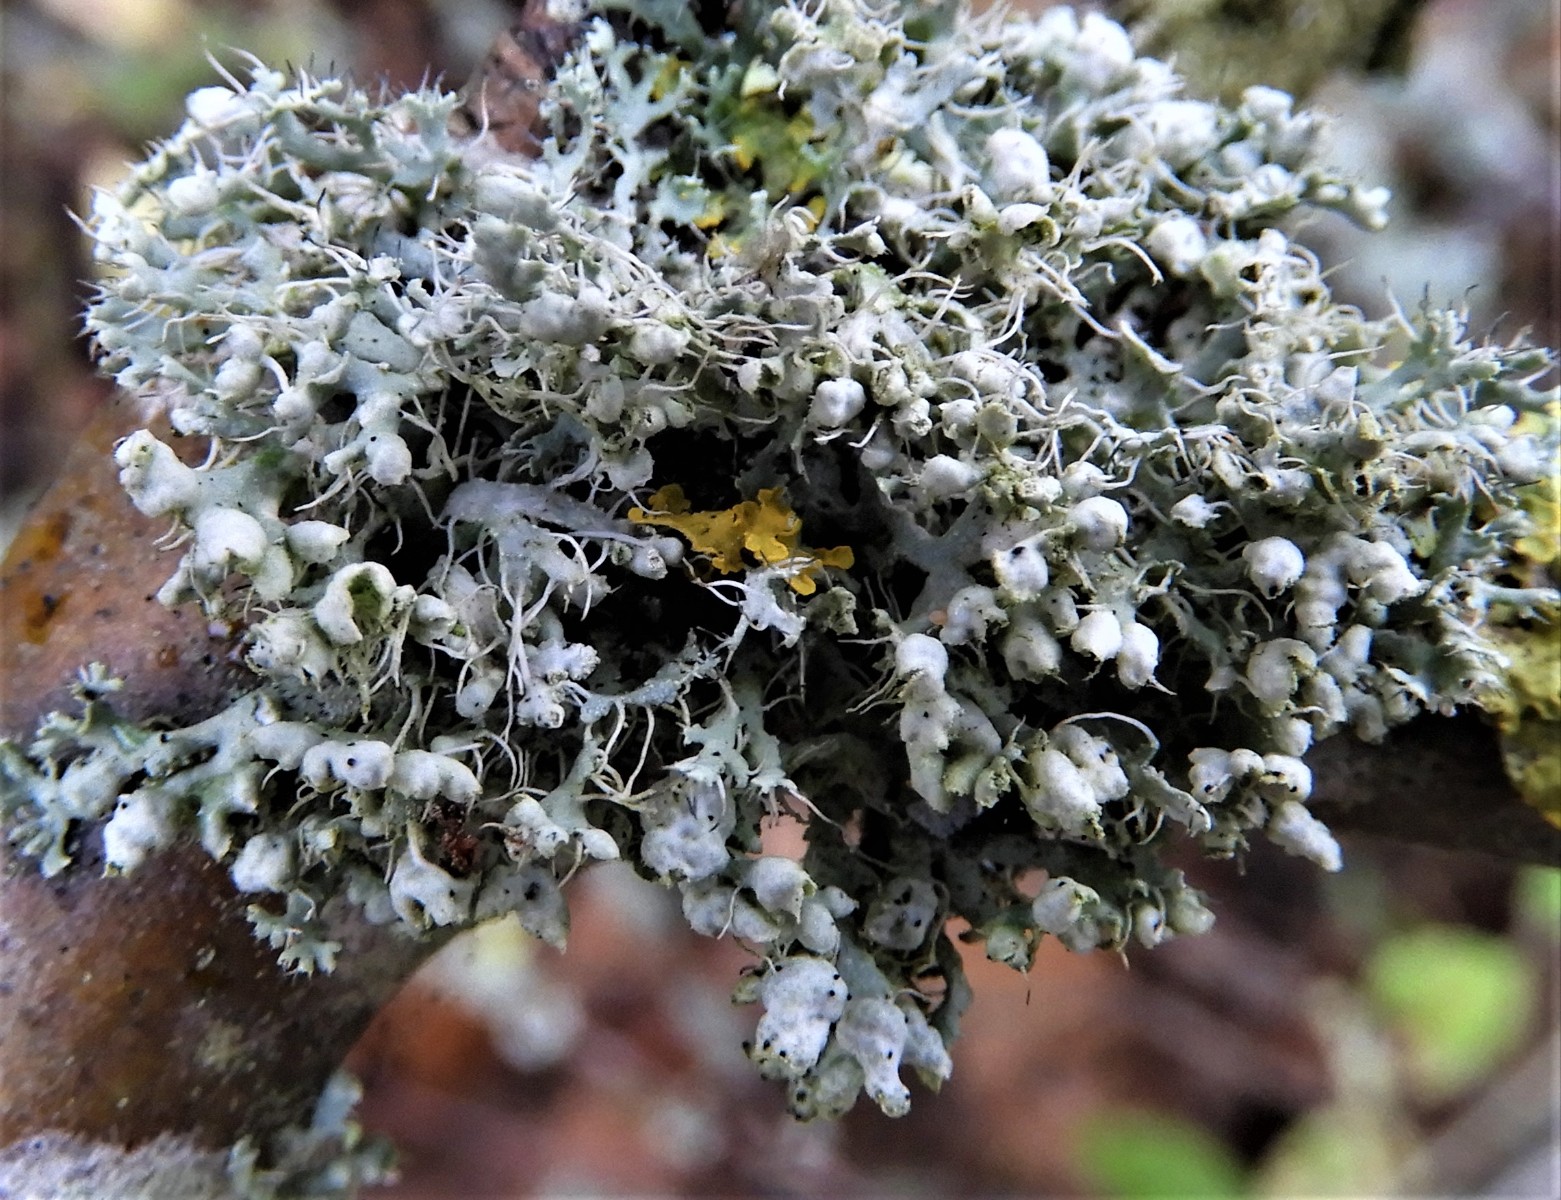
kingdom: Fungi
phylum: Ascomycota
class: Lecanoromycetes
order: Caliciales
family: Physciaceae
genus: Physcia
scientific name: Physcia adscendens
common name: hætte-rosetlav
